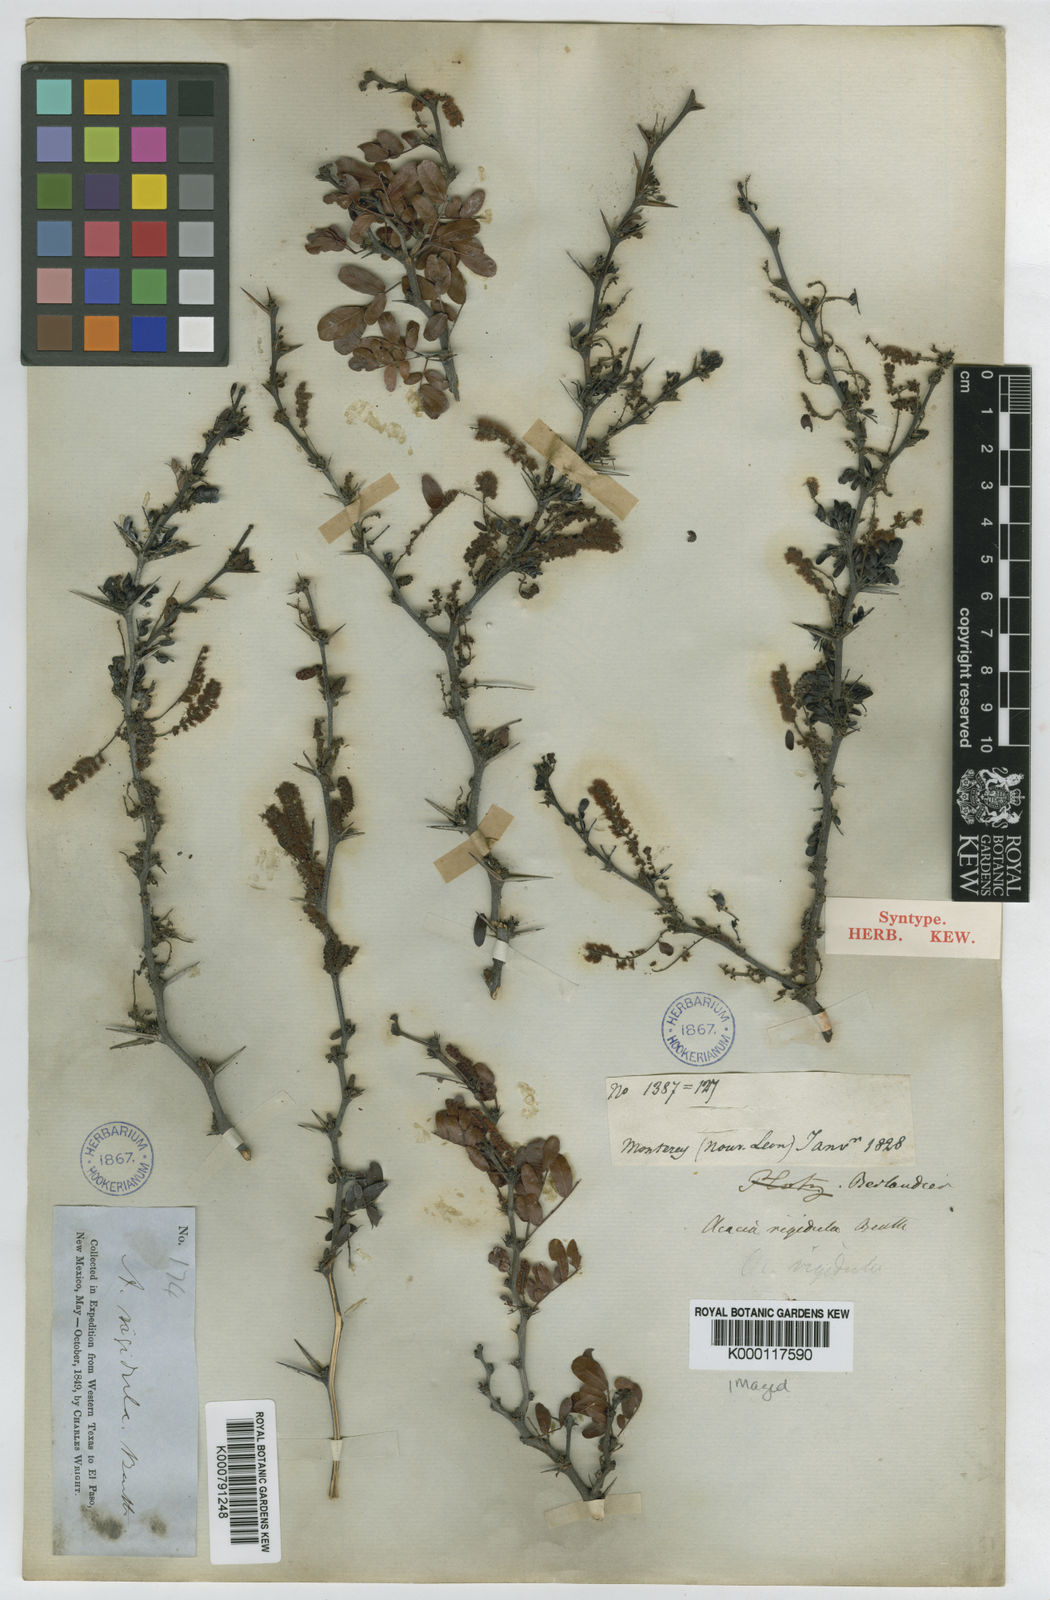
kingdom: Plantae
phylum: Tracheophyta
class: Magnoliopsida
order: Fabales
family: Fabaceae
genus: Vachellia
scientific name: Vachellia rigidula
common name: Blackbrush
